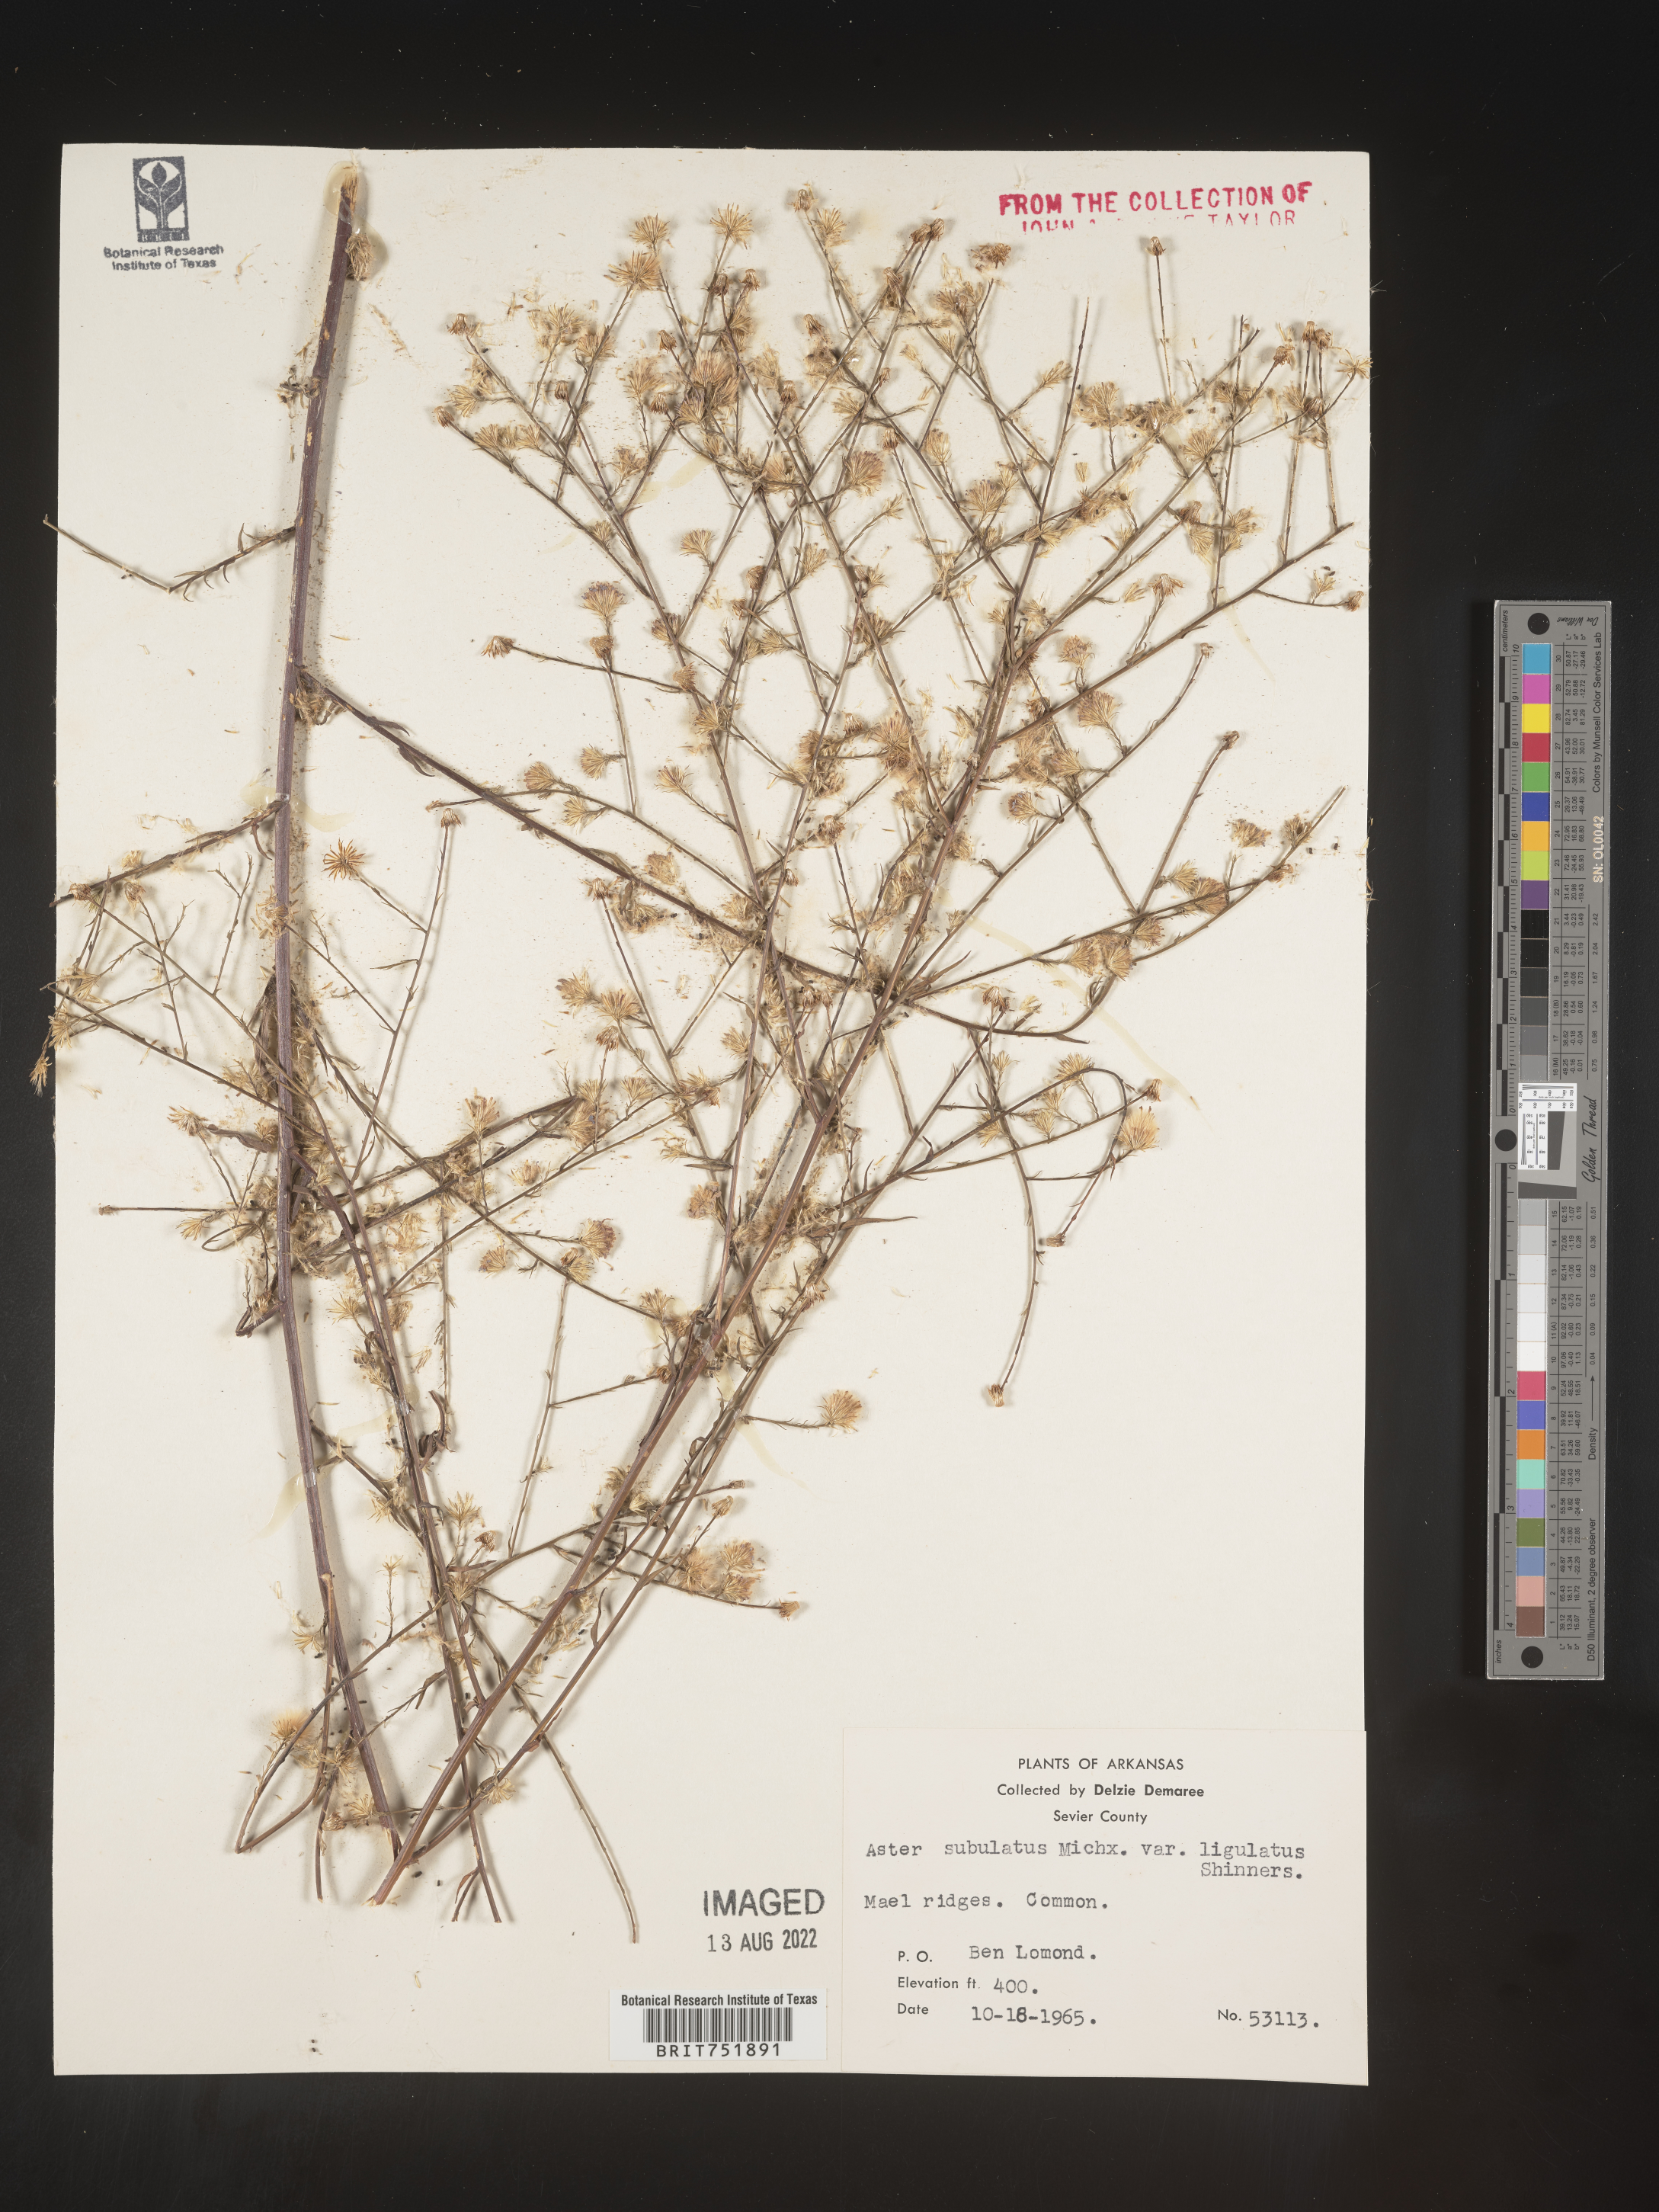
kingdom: Plantae
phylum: Tracheophyta
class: Magnoliopsida
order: Asterales
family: Asteraceae
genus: Symphyotrichum
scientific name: Symphyotrichum divaricatum
